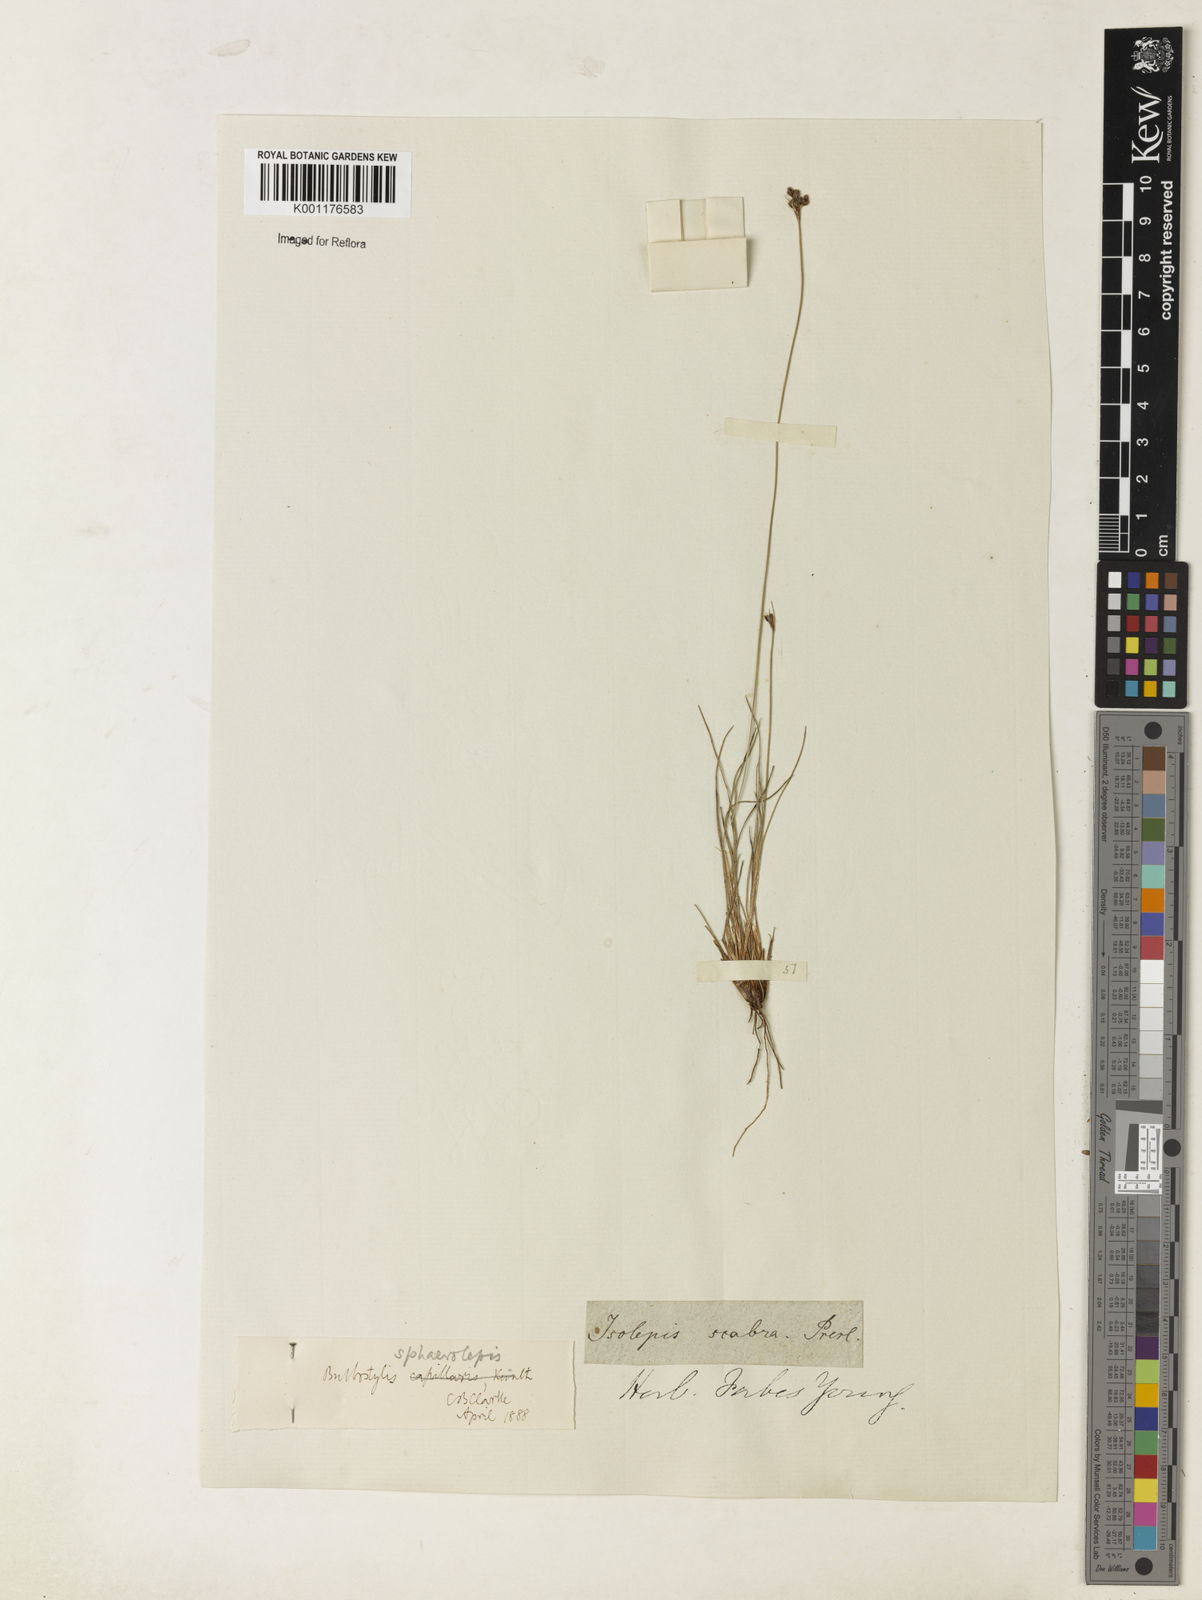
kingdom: Plantae
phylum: Tracheophyta
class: Liliopsida
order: Poales
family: Cyperaceae
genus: Bulbostylis
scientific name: Bulbostylis scabra
